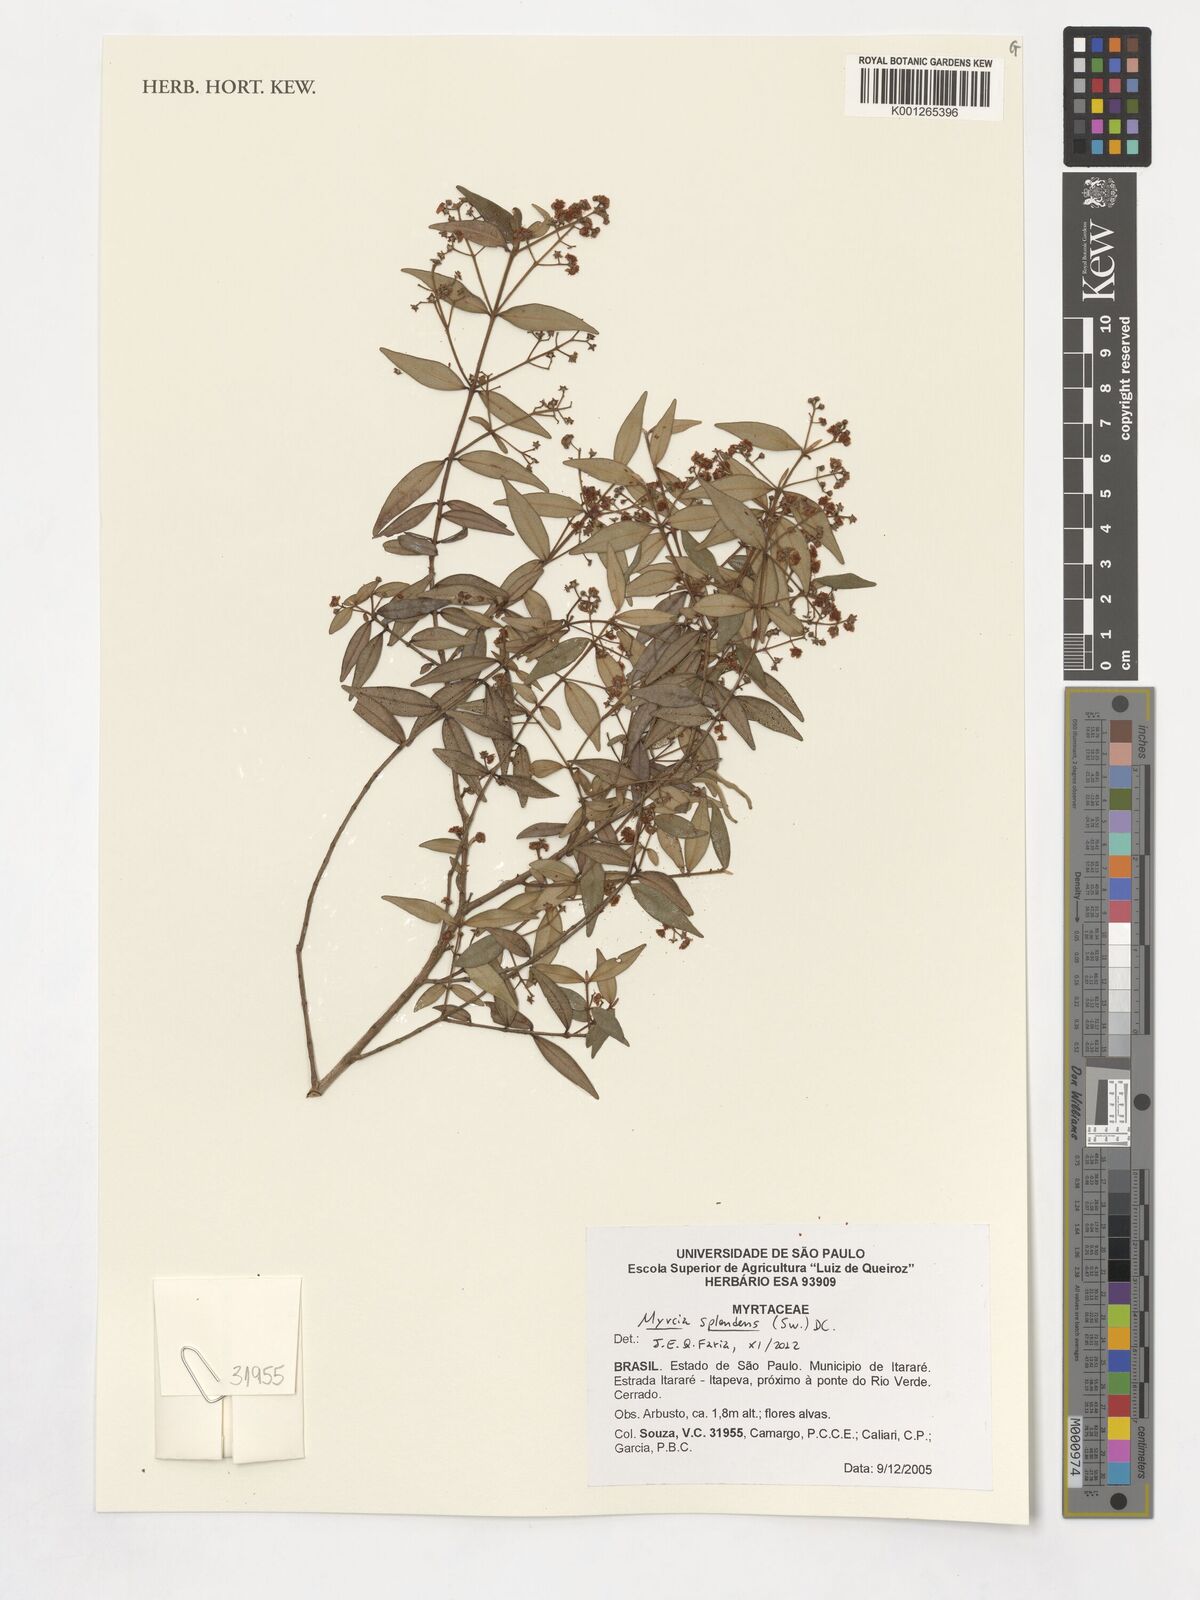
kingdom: Plantae
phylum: Tracheophyta
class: Magnoliopsida
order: Myrtales
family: Myrtaceae
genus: Myrcia
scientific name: Myrcia splendens
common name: Surinam cherry
